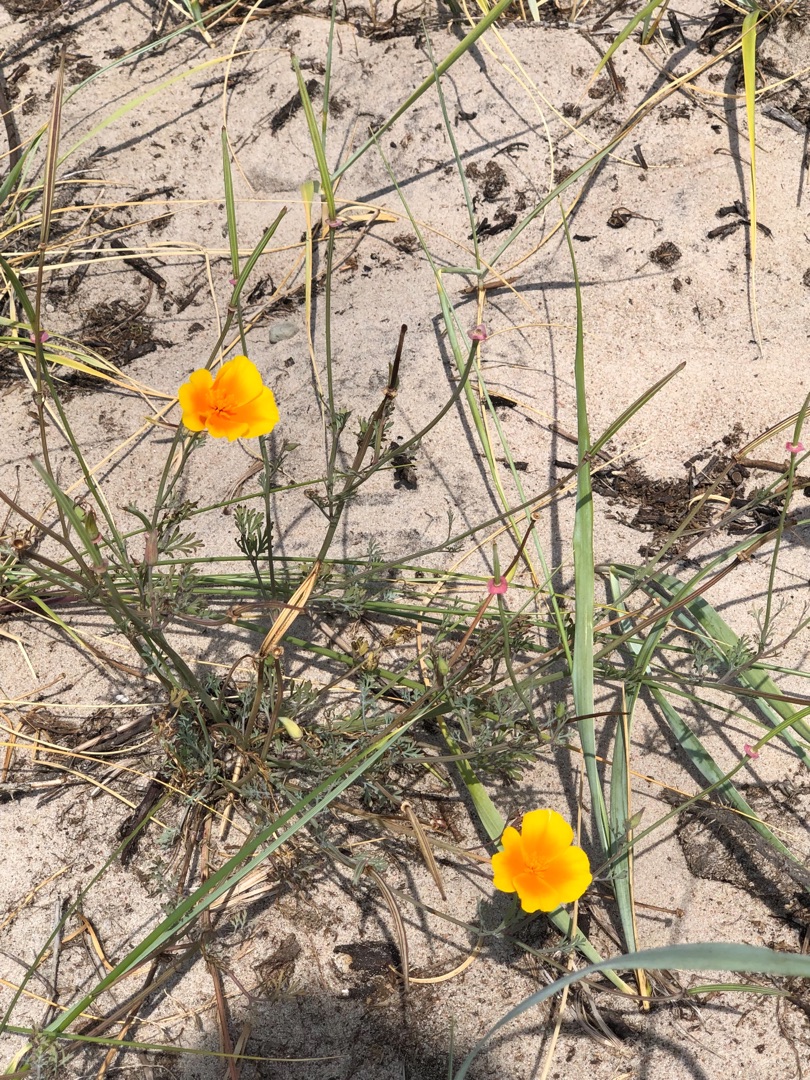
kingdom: Plantae
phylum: Tracheophyta
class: Magnoliopsida
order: Ranunculales
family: Papaveraceae
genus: Eschscholzia
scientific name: Eschscholzia californica
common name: Guldvalmue
